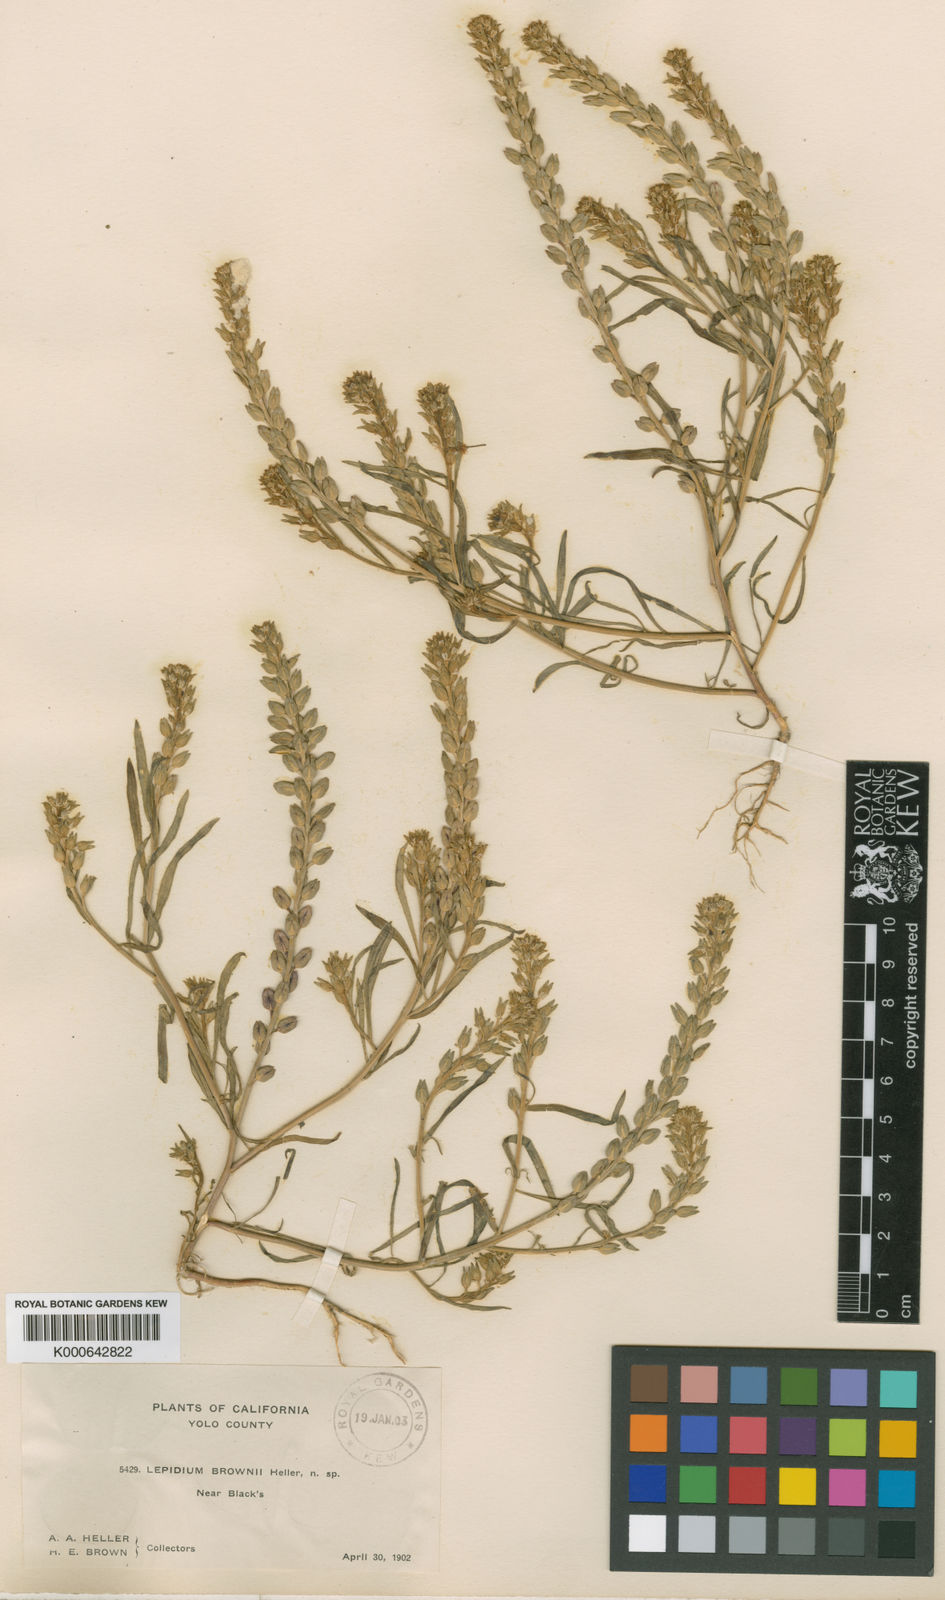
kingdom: Plantae
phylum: Tracheophyta
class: Magnoliopsida
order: Brassicales
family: Brassicaceae
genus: Lepidium
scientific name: Lepidium
